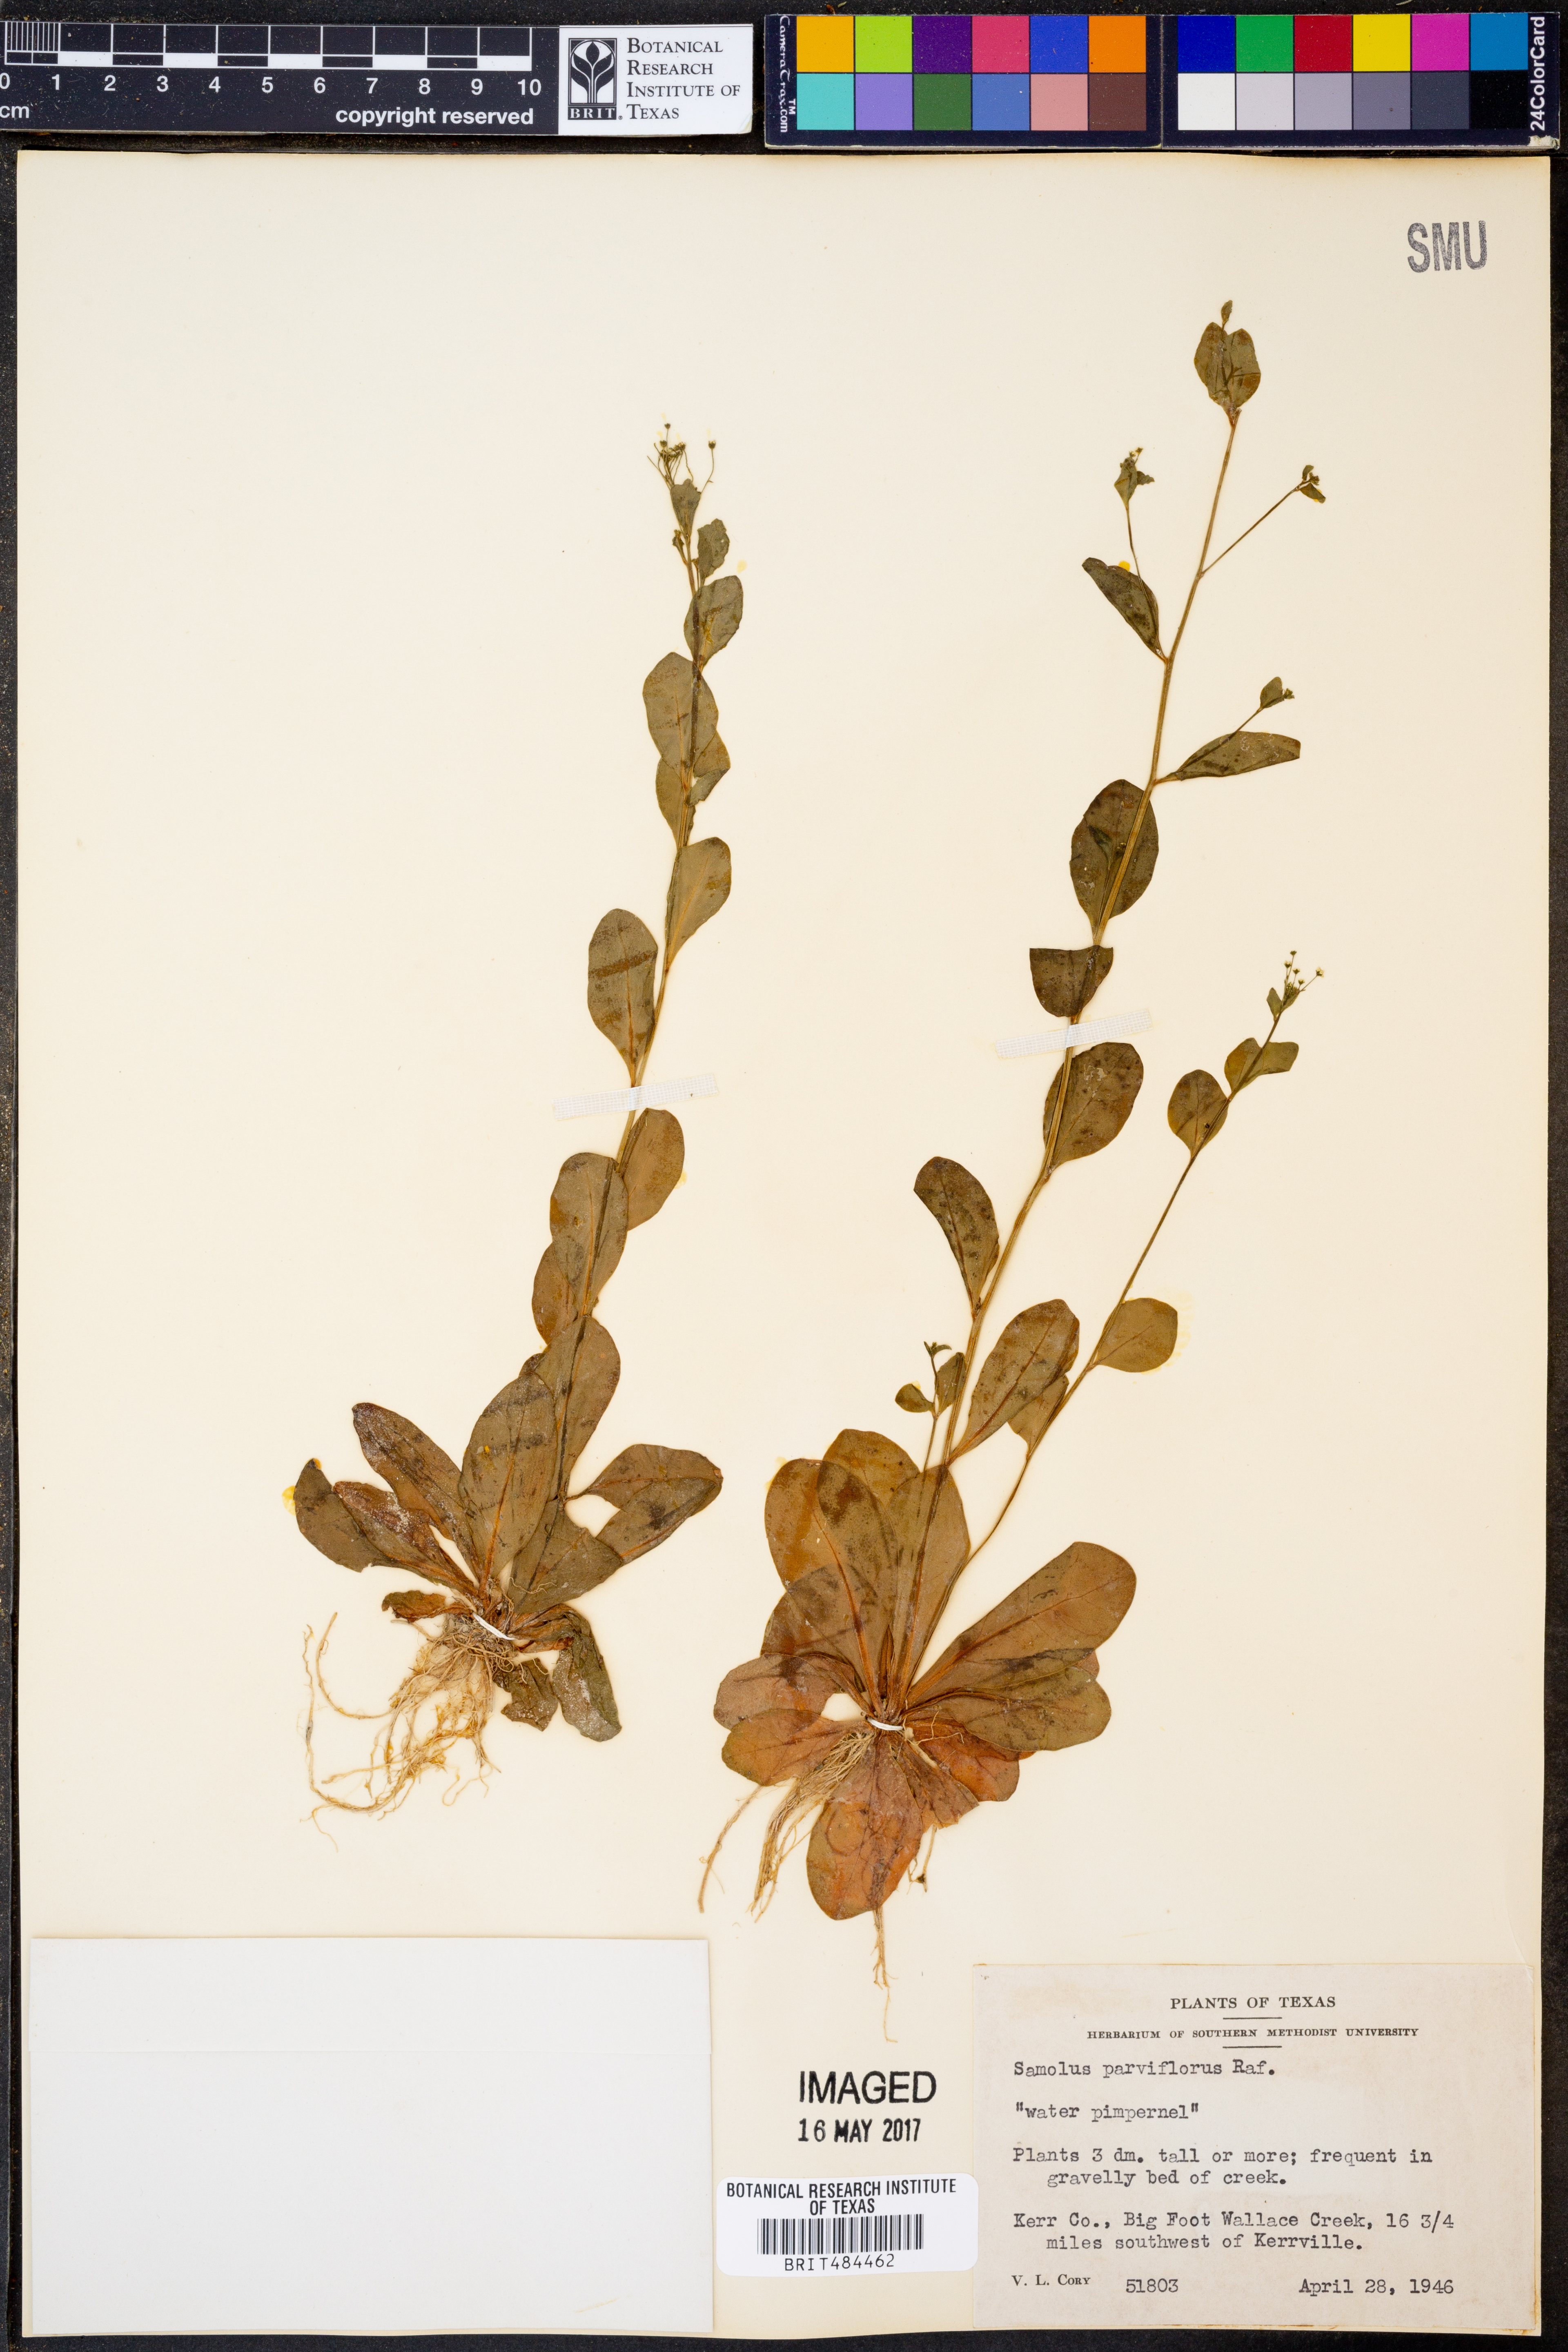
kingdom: Plantae
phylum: Tracheophyta
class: Magnoliopsida
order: Ericales
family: Primulaceae
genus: Samolus
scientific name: Samolus parviflorus
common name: False water pimpernel
